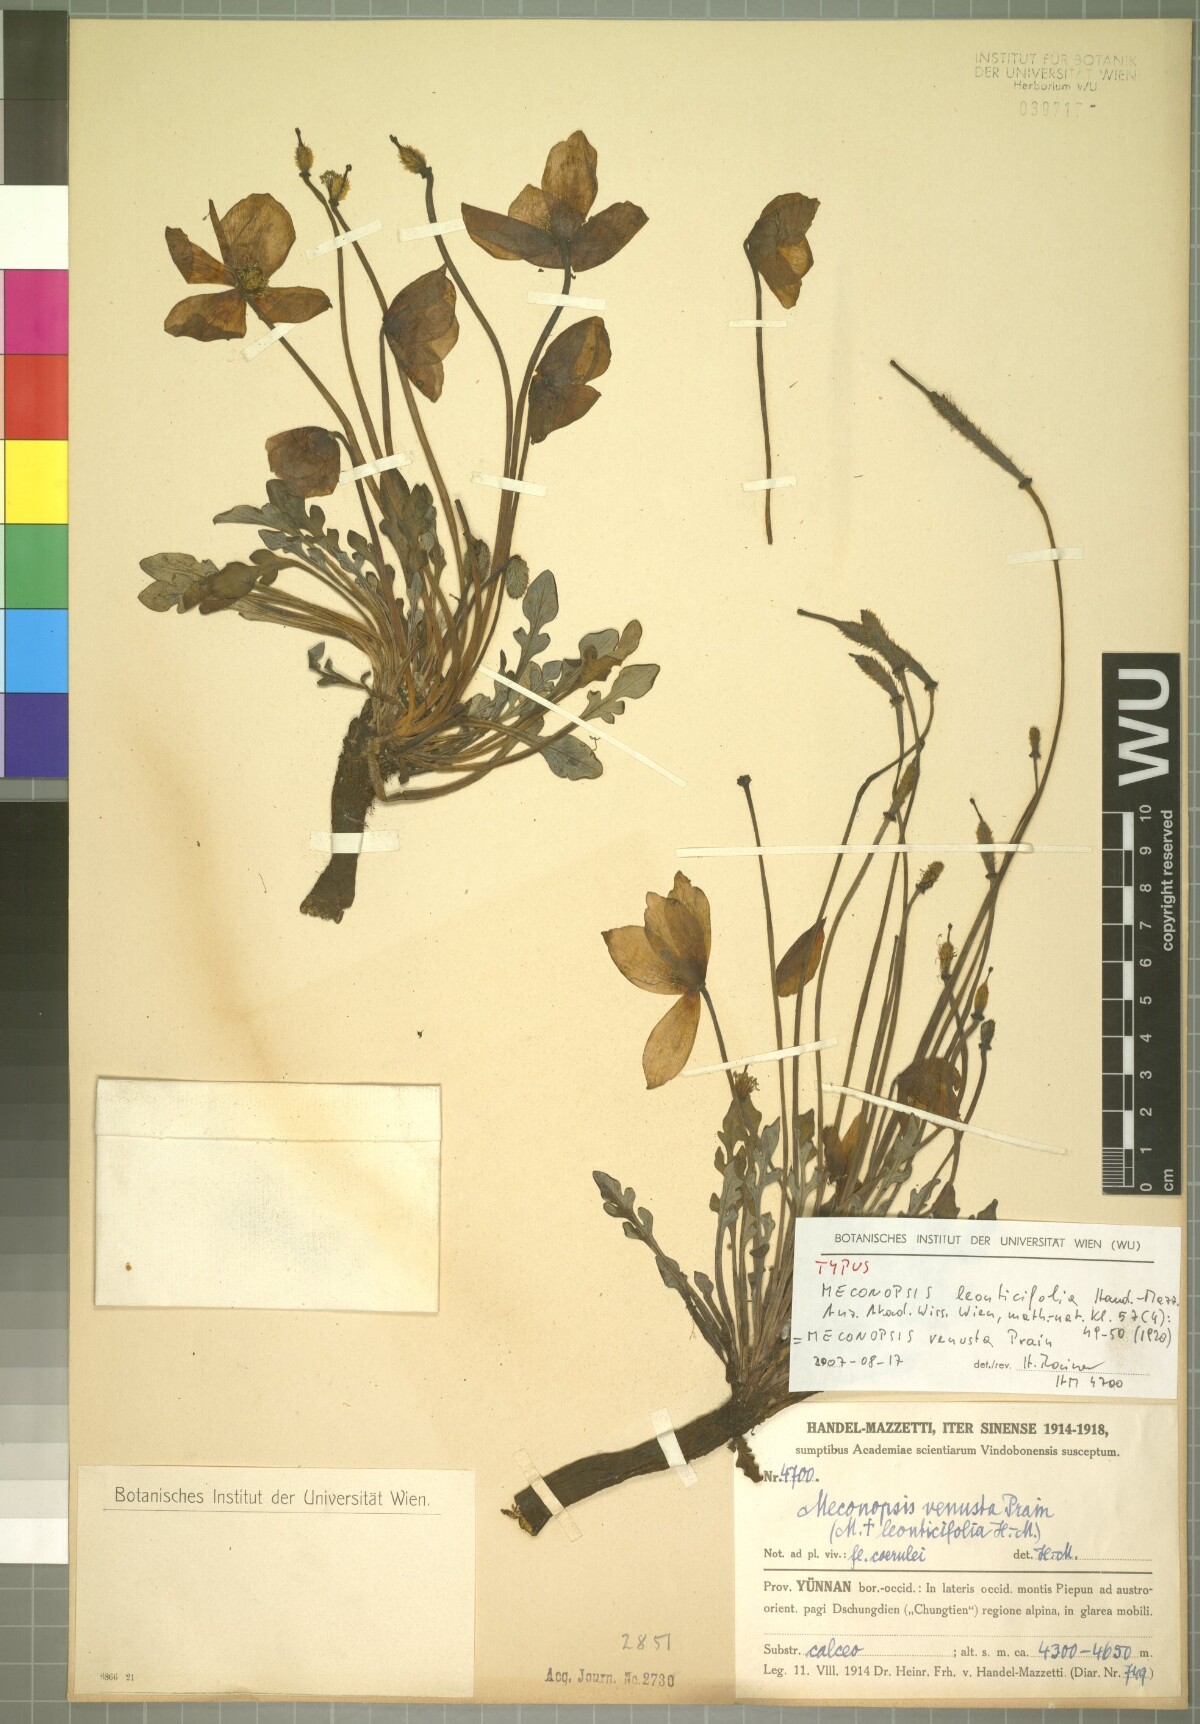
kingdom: Plantae
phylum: Tracheophyta
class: Magnoliopsida
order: Ranunculales
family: Papaveraceae
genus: Meconopsis
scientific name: Meconopsis venusta
